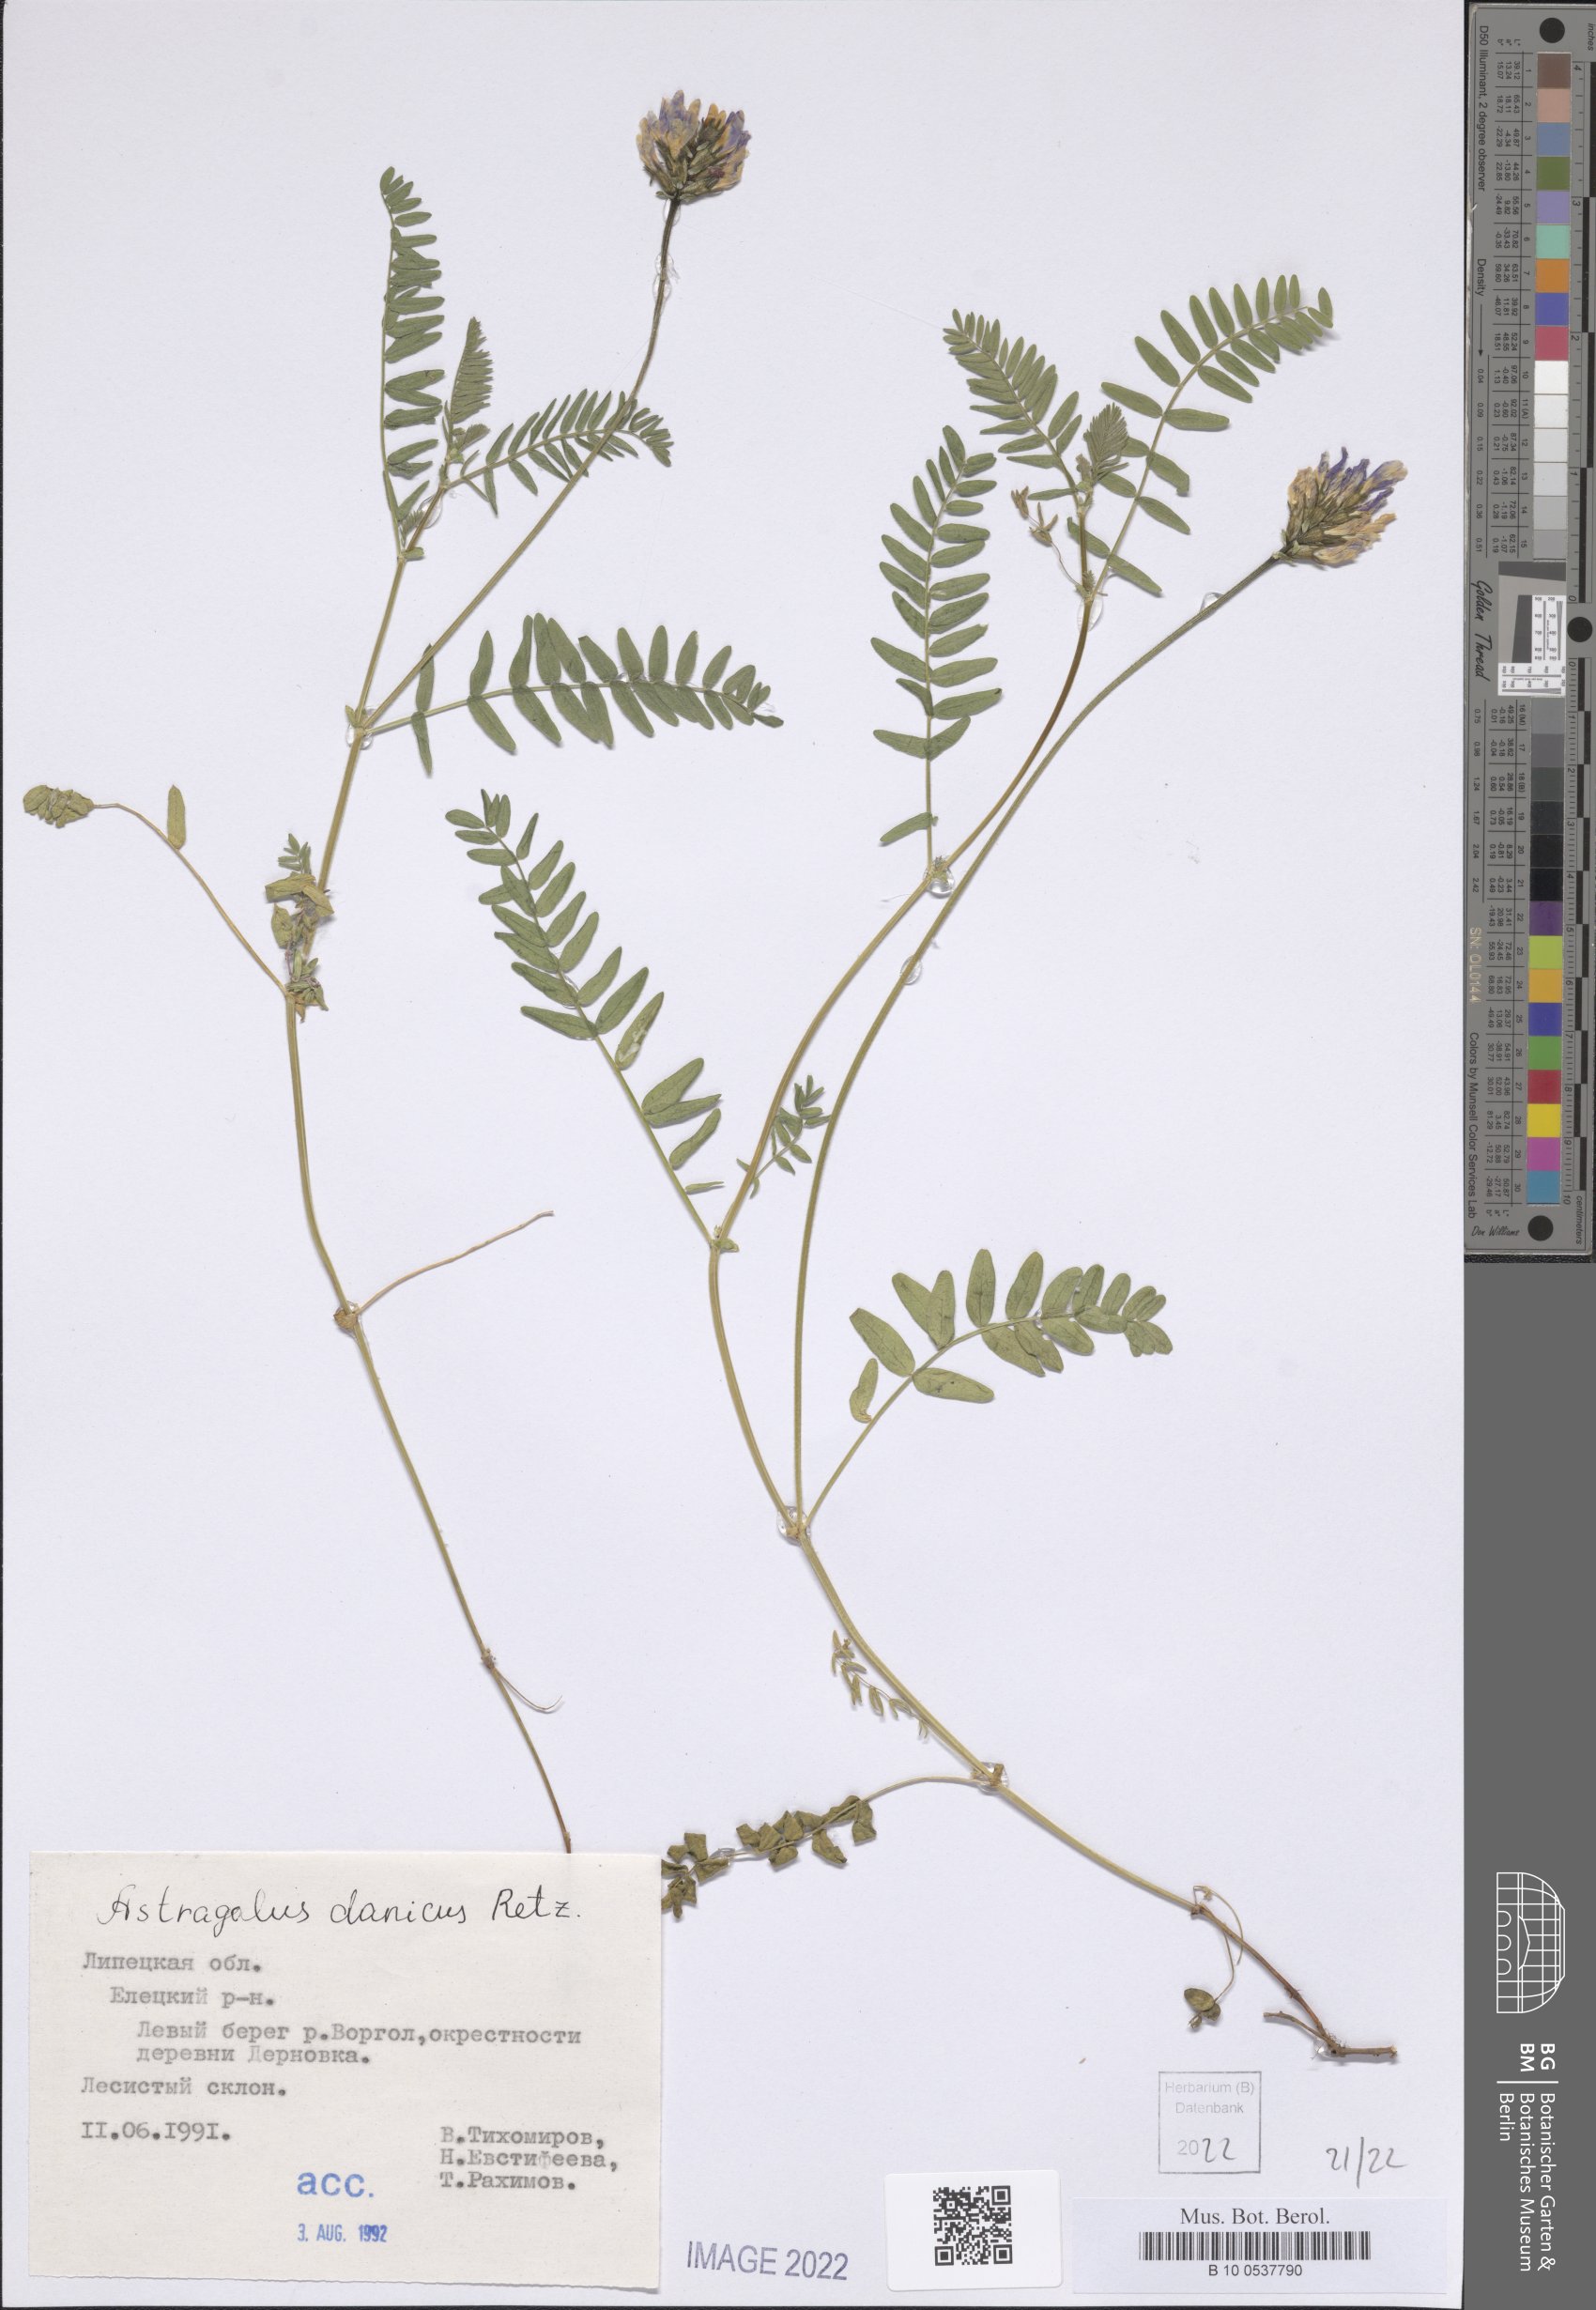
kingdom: Plantae
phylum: Tracheophyta
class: Magnoliopsida
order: Fabales
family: Fabaceae
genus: Astragalus
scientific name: Astragalus danicus
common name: Purple milk-vetch
